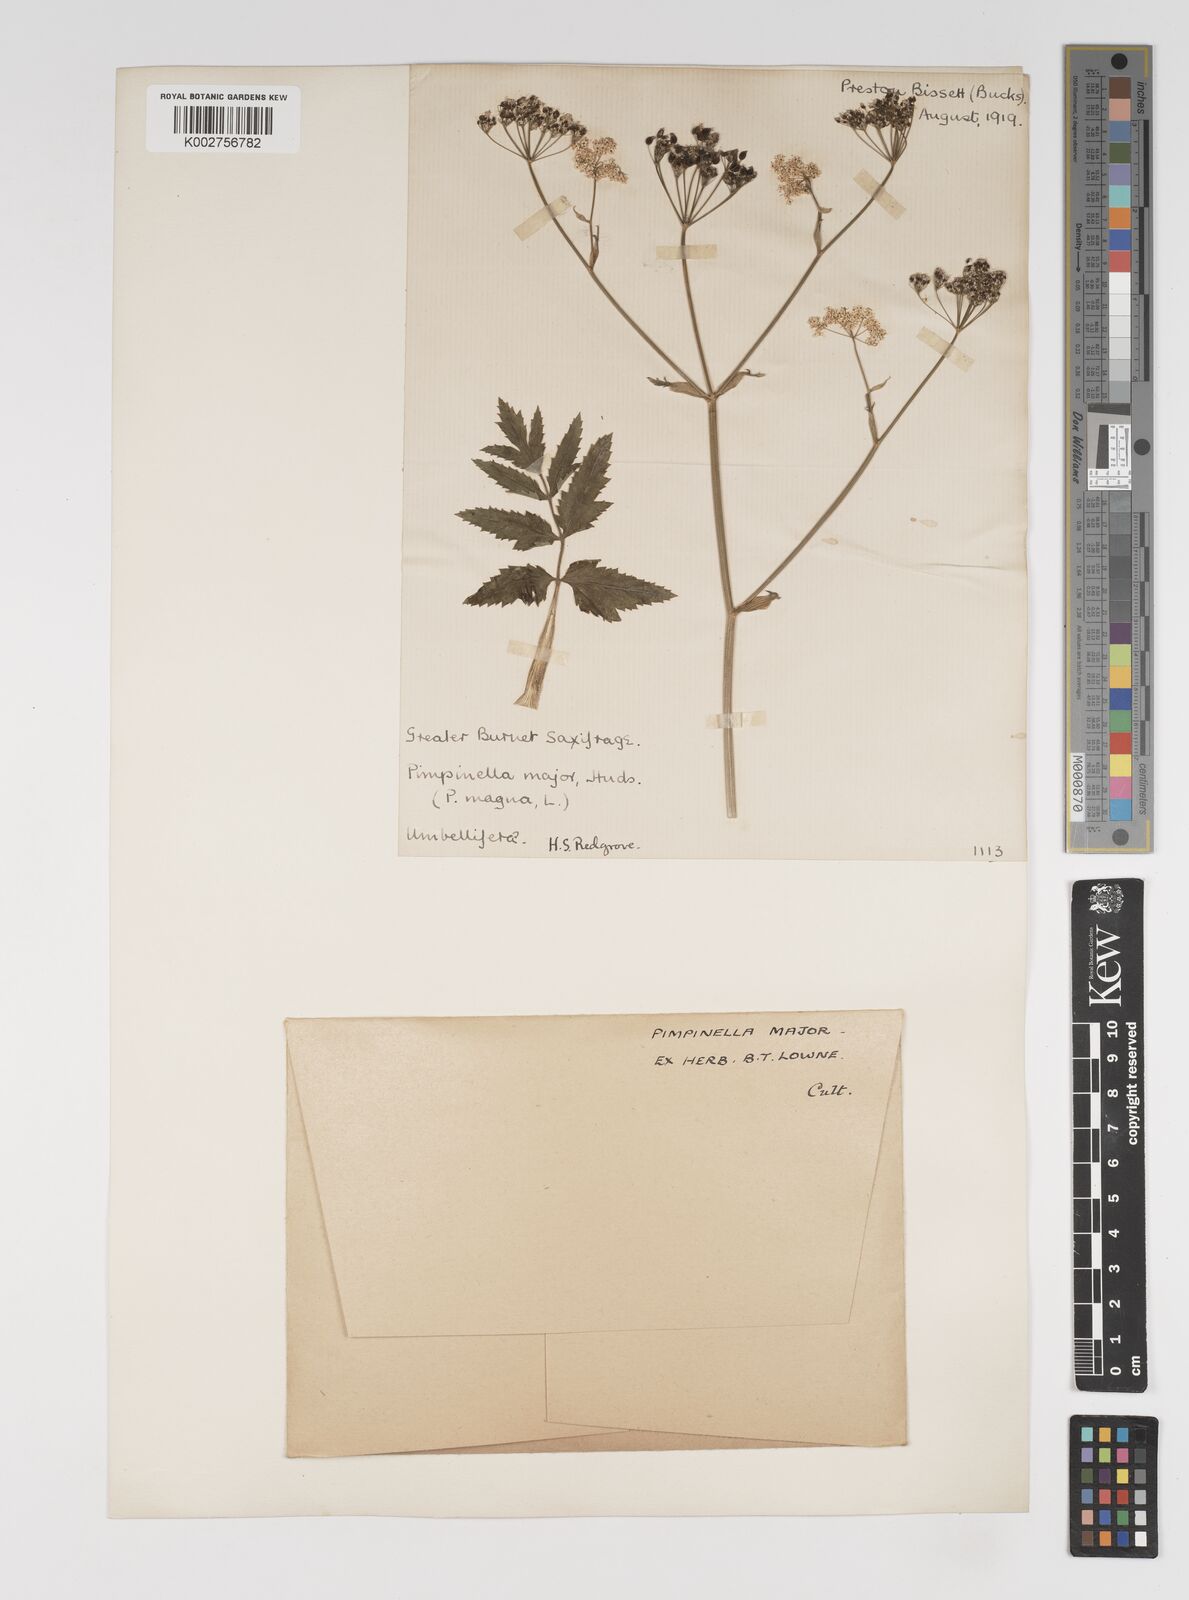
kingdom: Plantae
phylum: Tracheophyta
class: Magnoliopsida
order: Apiales
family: Apiaceae
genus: Pimpinella
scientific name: Pimpinella major
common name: Greater burnet-saxifrage
